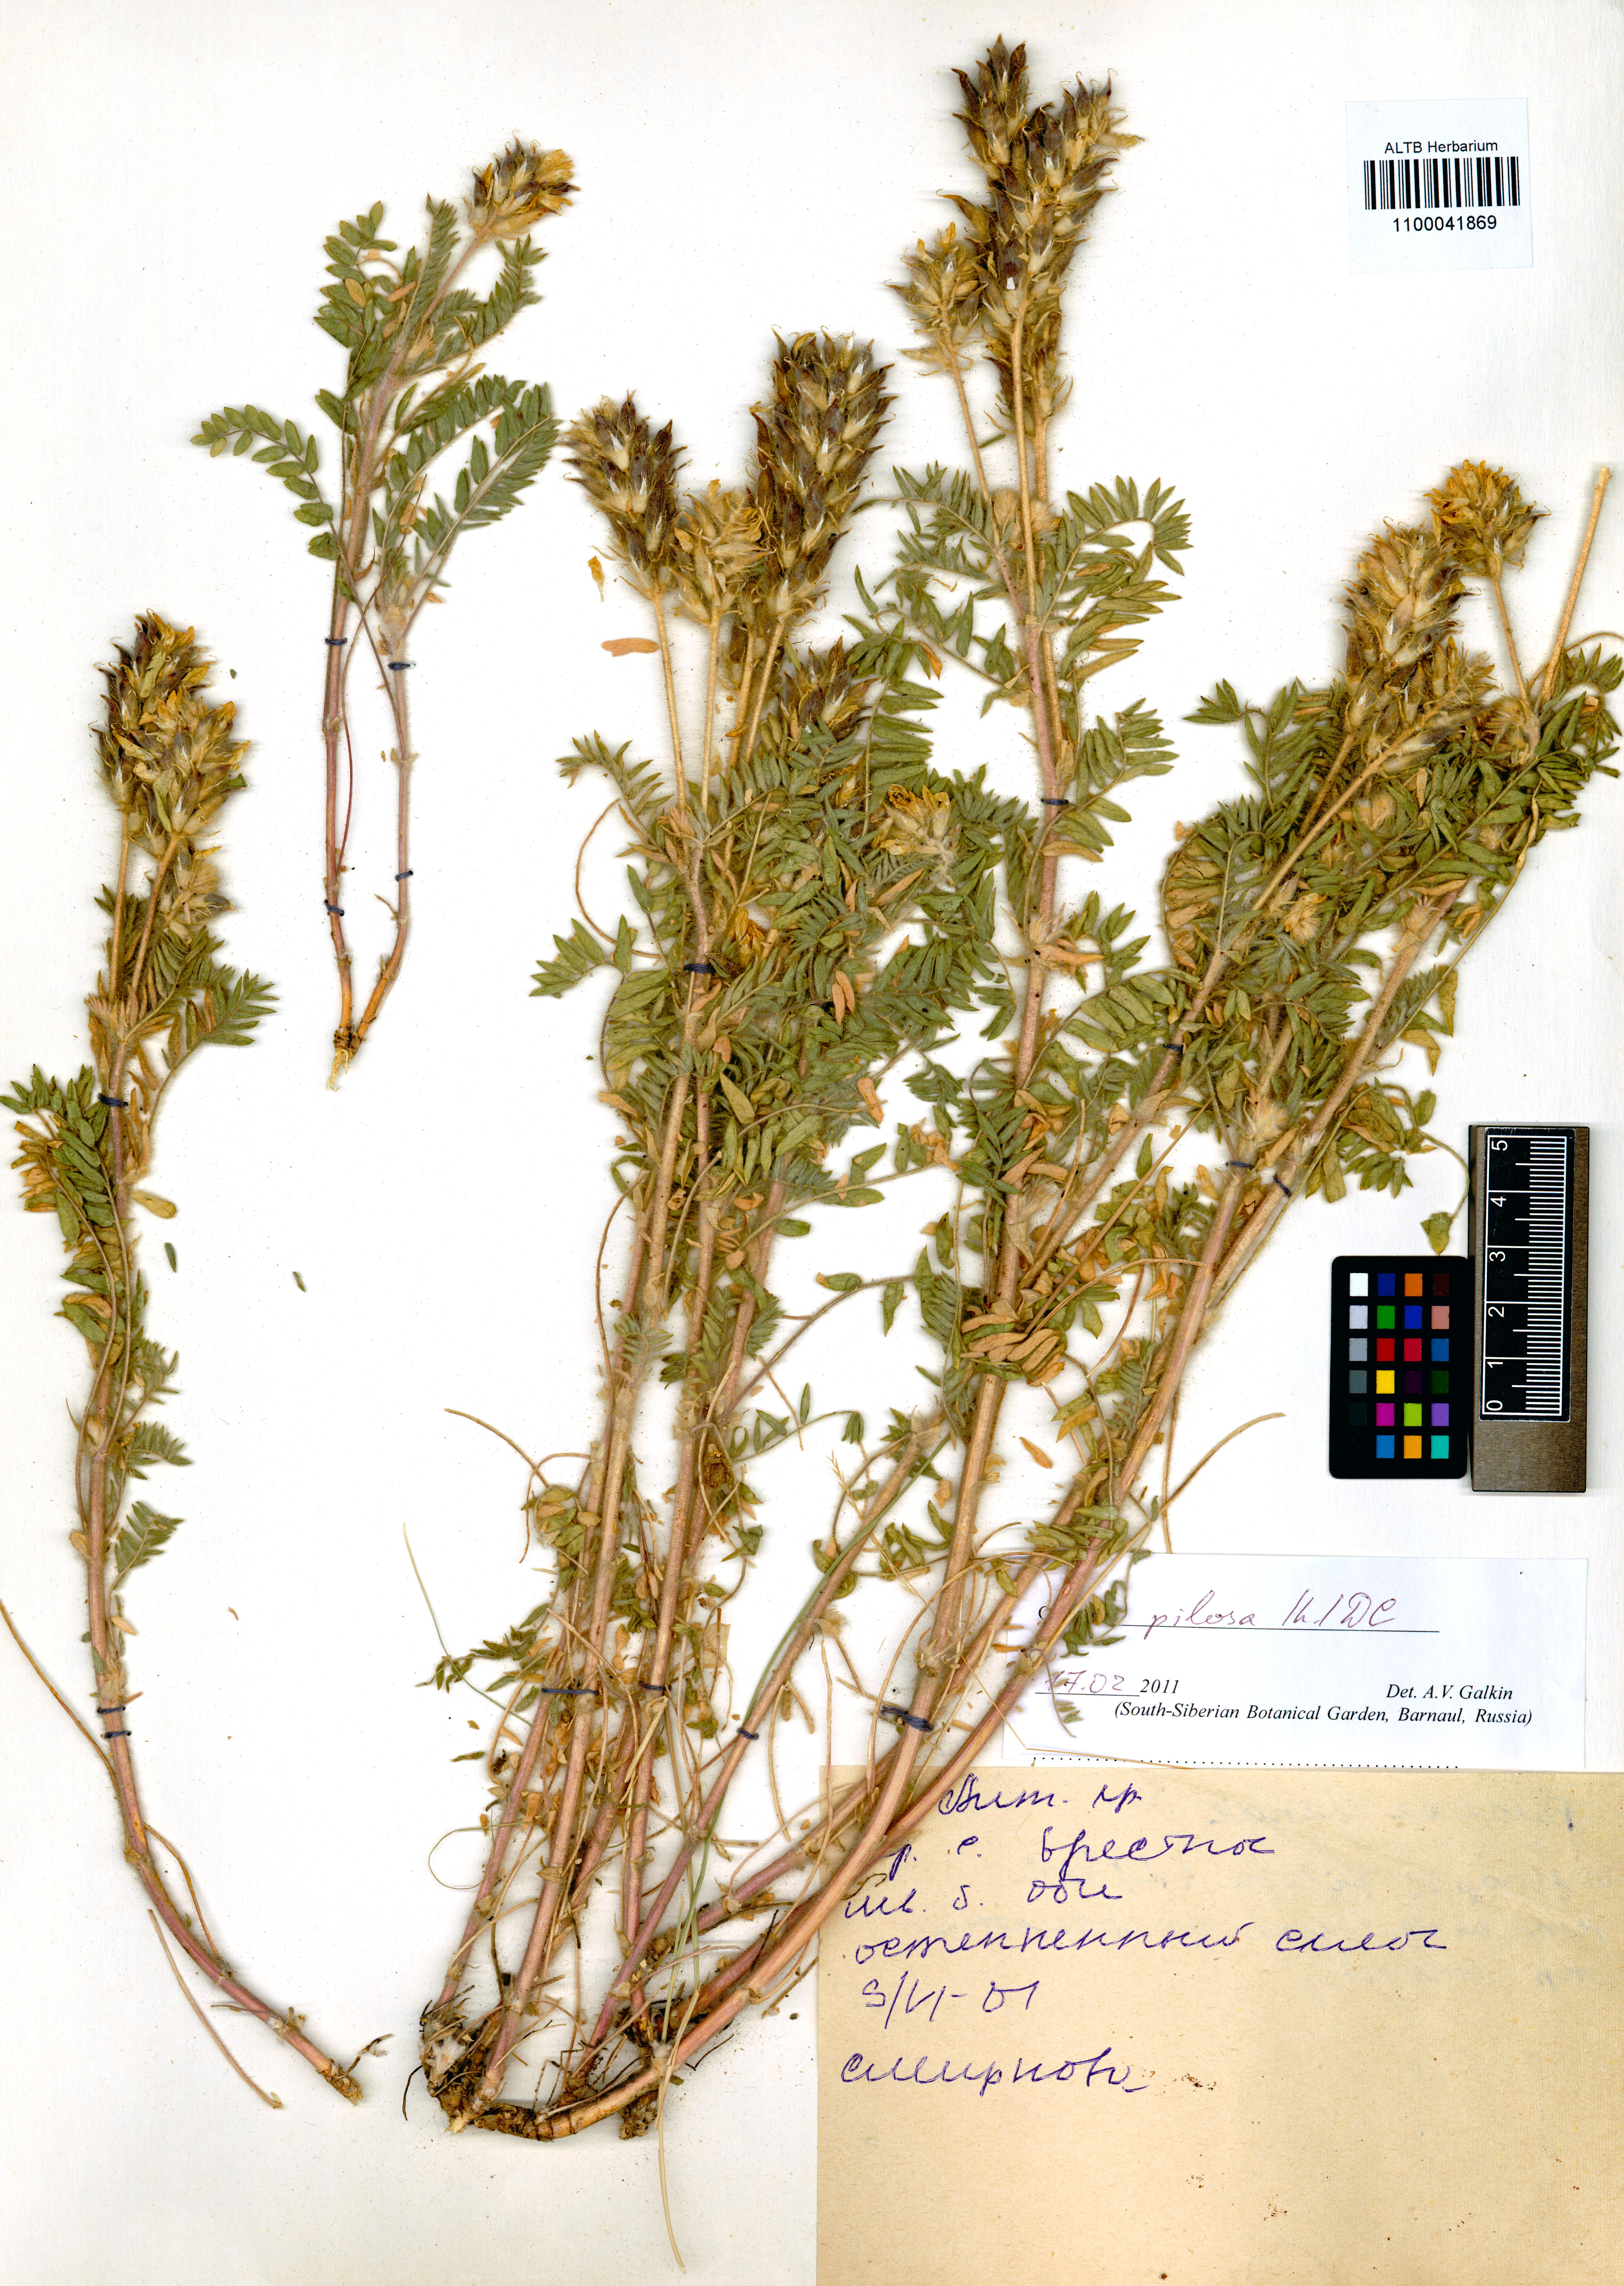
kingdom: Plantae
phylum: Tracheophyta
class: Magnoliopsida
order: Fabales
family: Fabaceae
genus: Oxytropis
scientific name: Oxytropis pilosa
